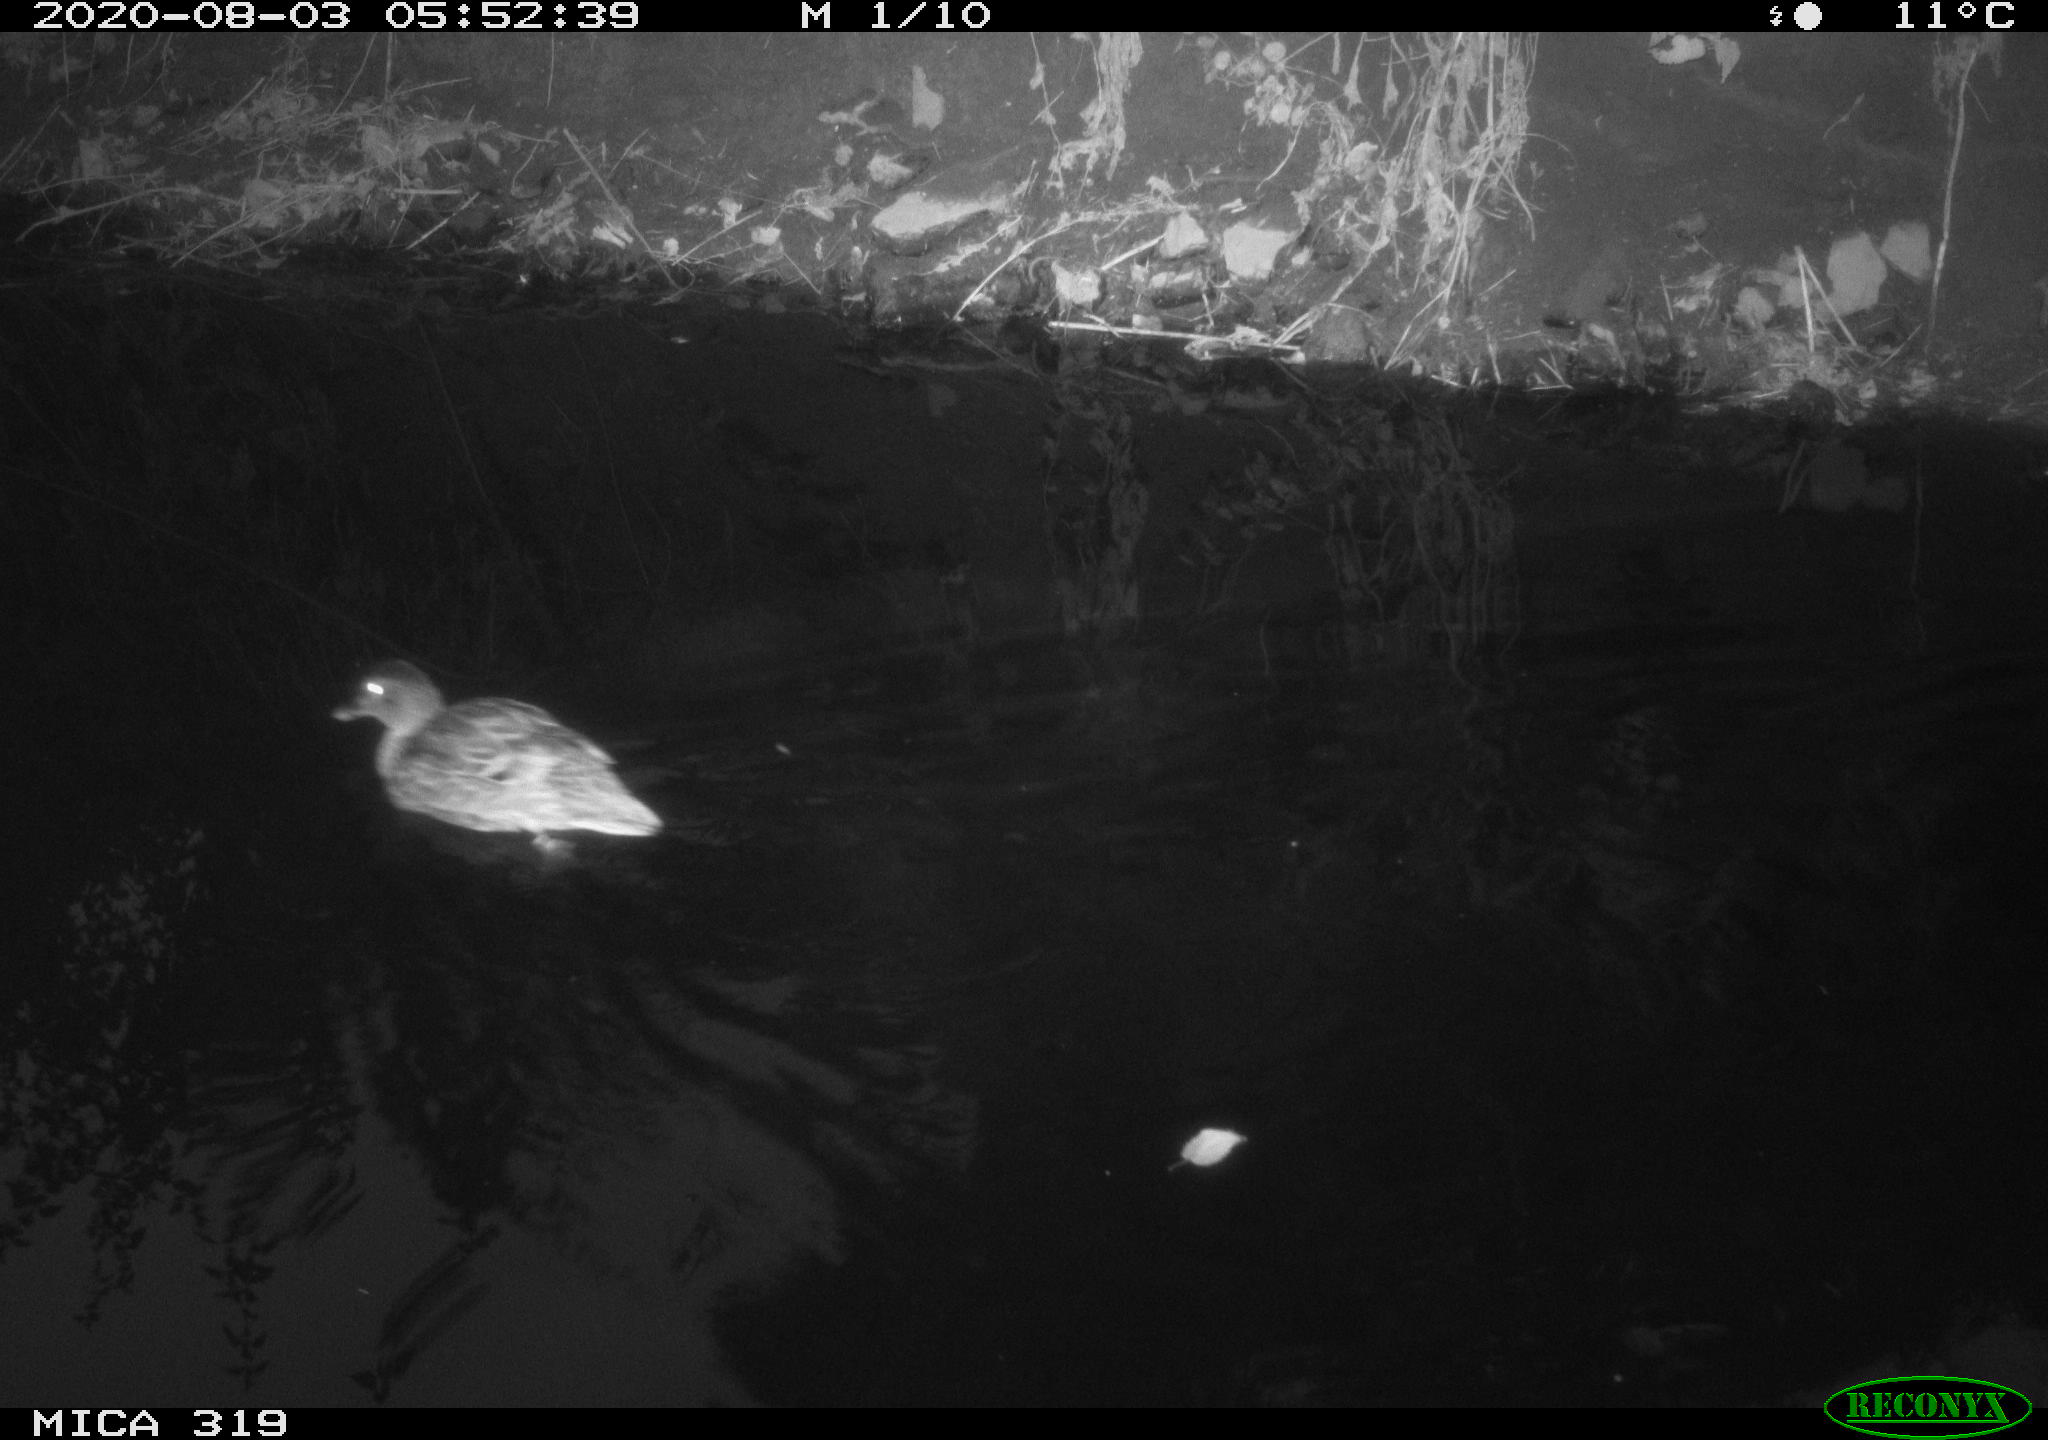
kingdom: Animalia
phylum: Chordata
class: Aves
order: Anseriformes
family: Anatidae
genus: Anas
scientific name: Anas platyrhynchos
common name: Mallard
